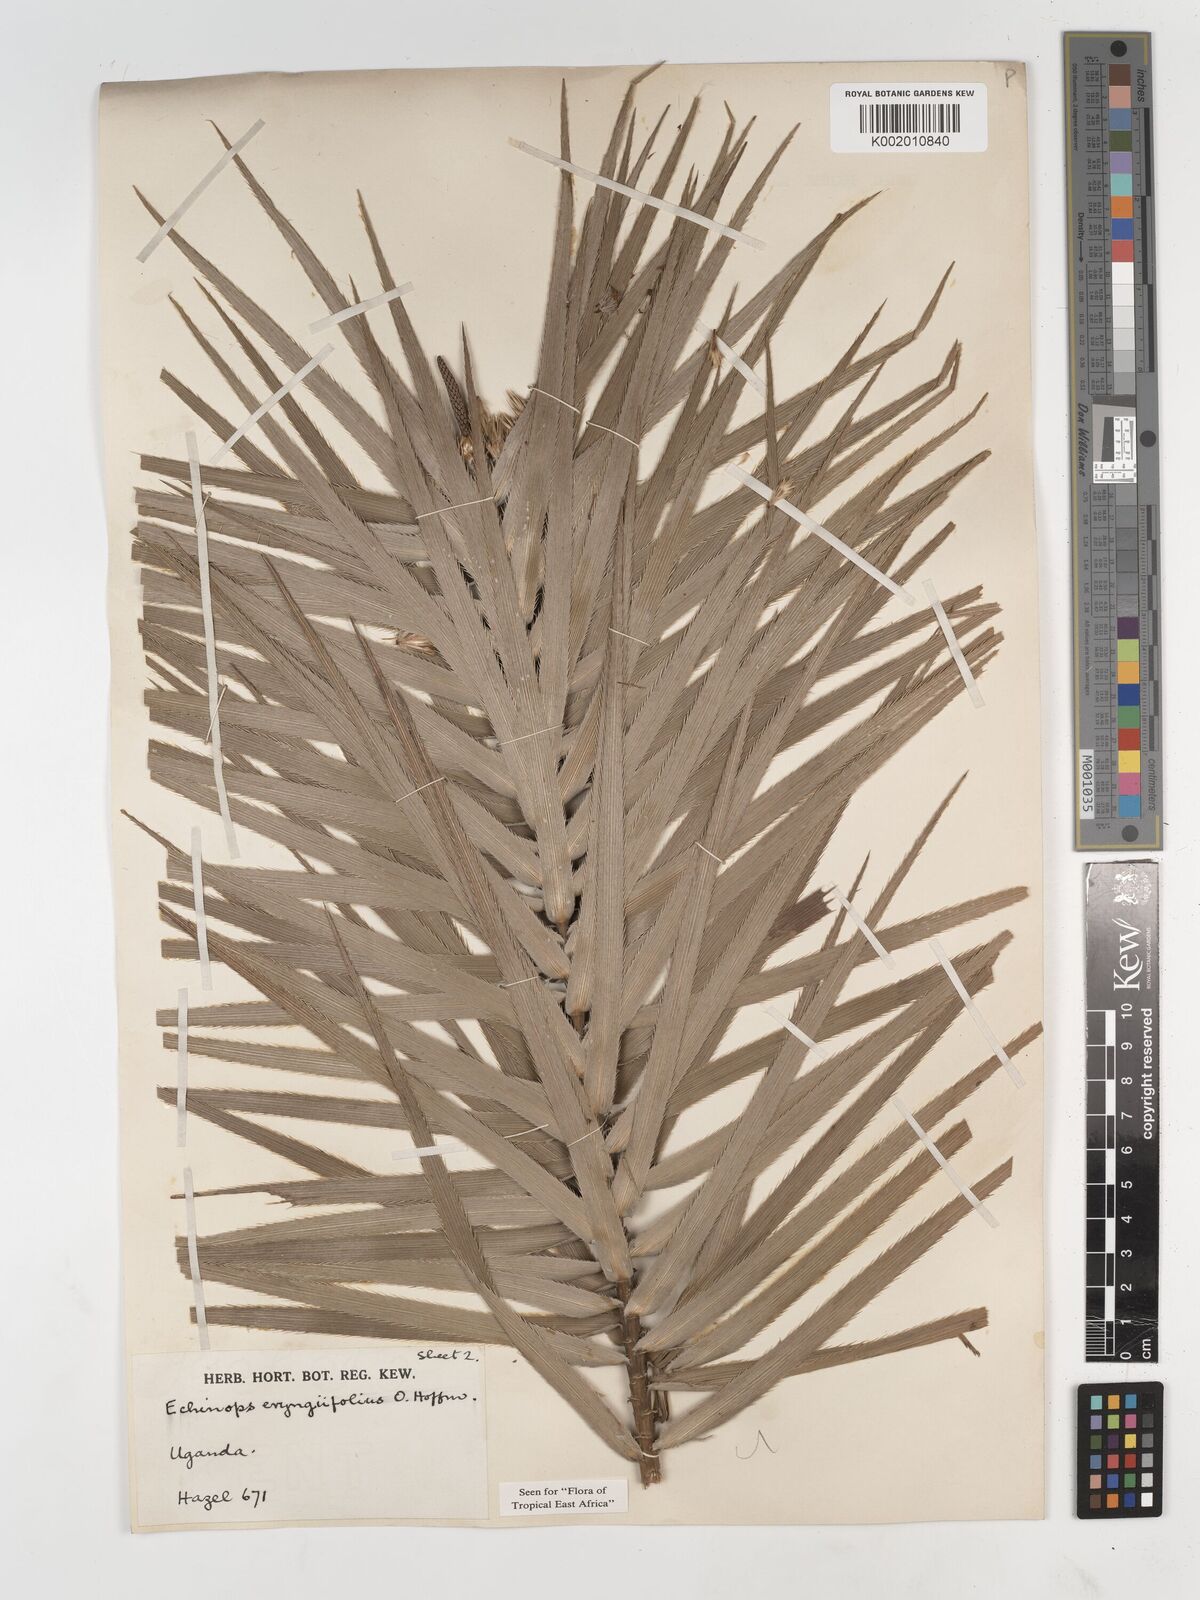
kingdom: Plantae
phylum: Tracheophyta
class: Magnoliopsida
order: Asterales
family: Asteraceae
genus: Echinops
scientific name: Echinops eryngiifolius
